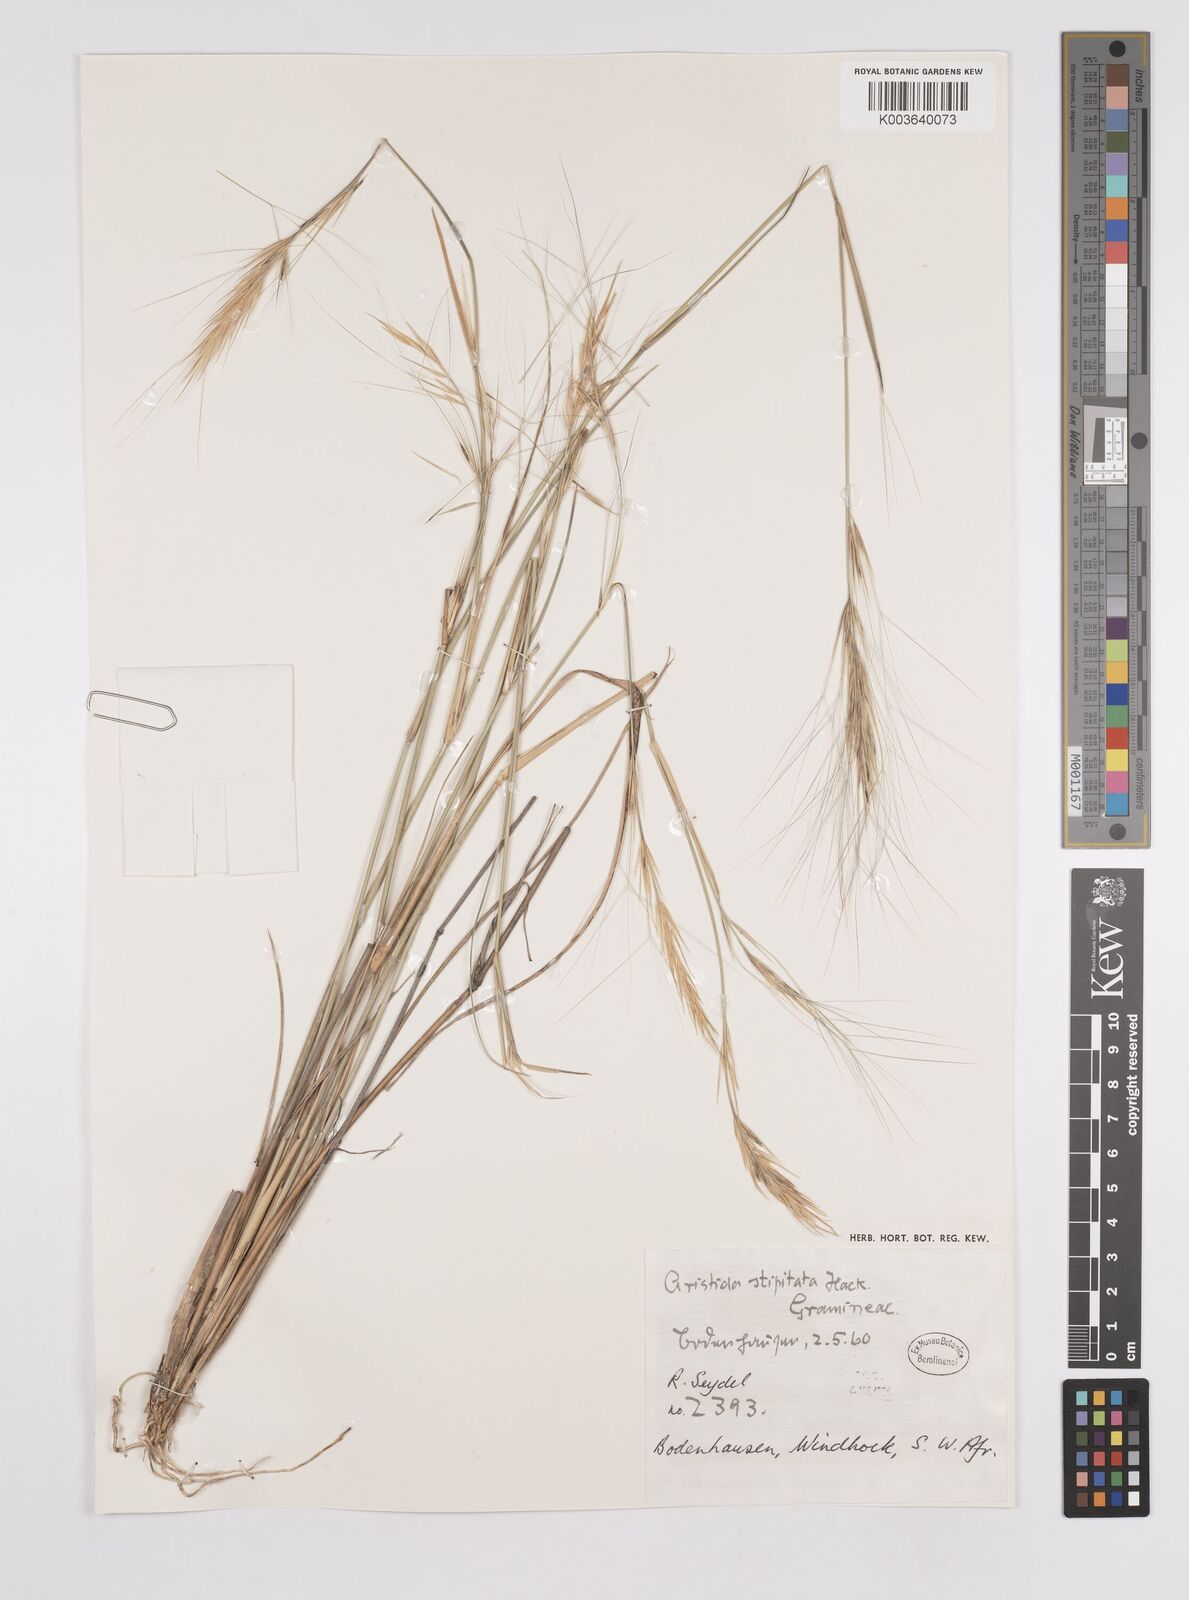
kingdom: Plantae
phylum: Tracheophyta
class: Liliopsida
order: Poales
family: Poaceae
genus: Aristida
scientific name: Aristida stipitata
